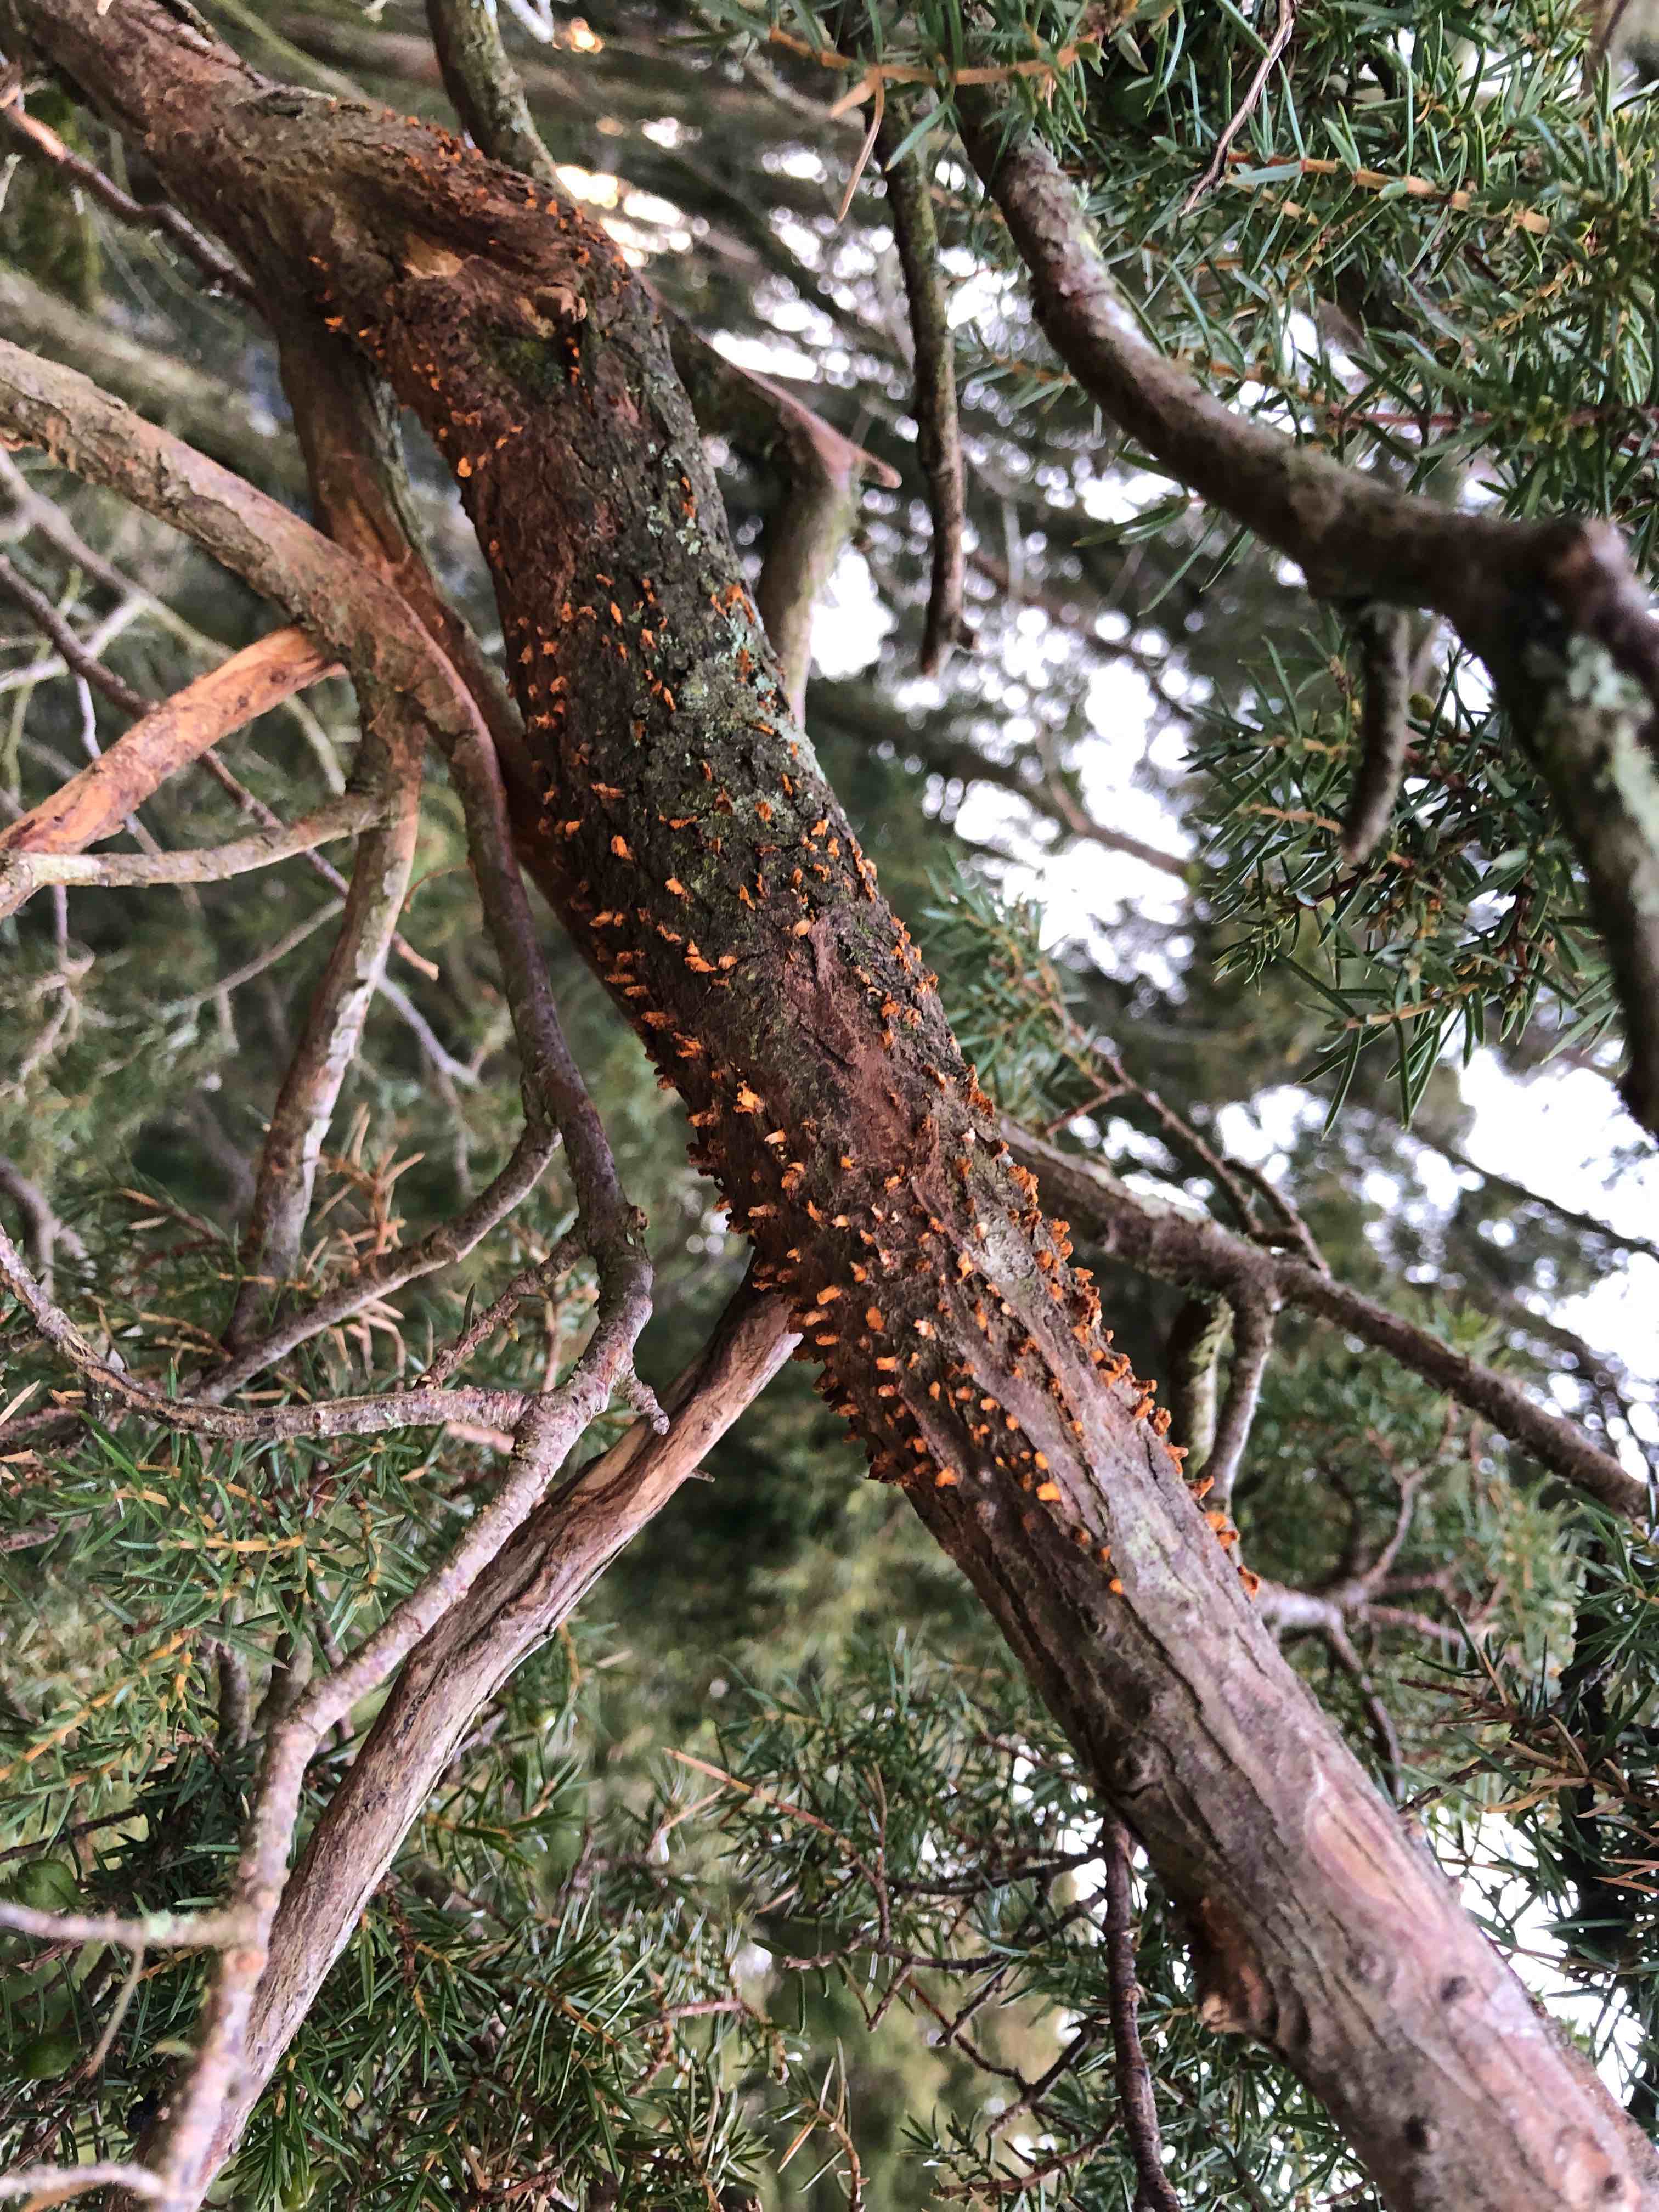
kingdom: Fungi
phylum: Basidiomycota
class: Pucciniomycetes
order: Pucciniales
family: Gymnosporangiaceae
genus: Gymnosporangium
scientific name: Gymnosporangium clavariiforme
